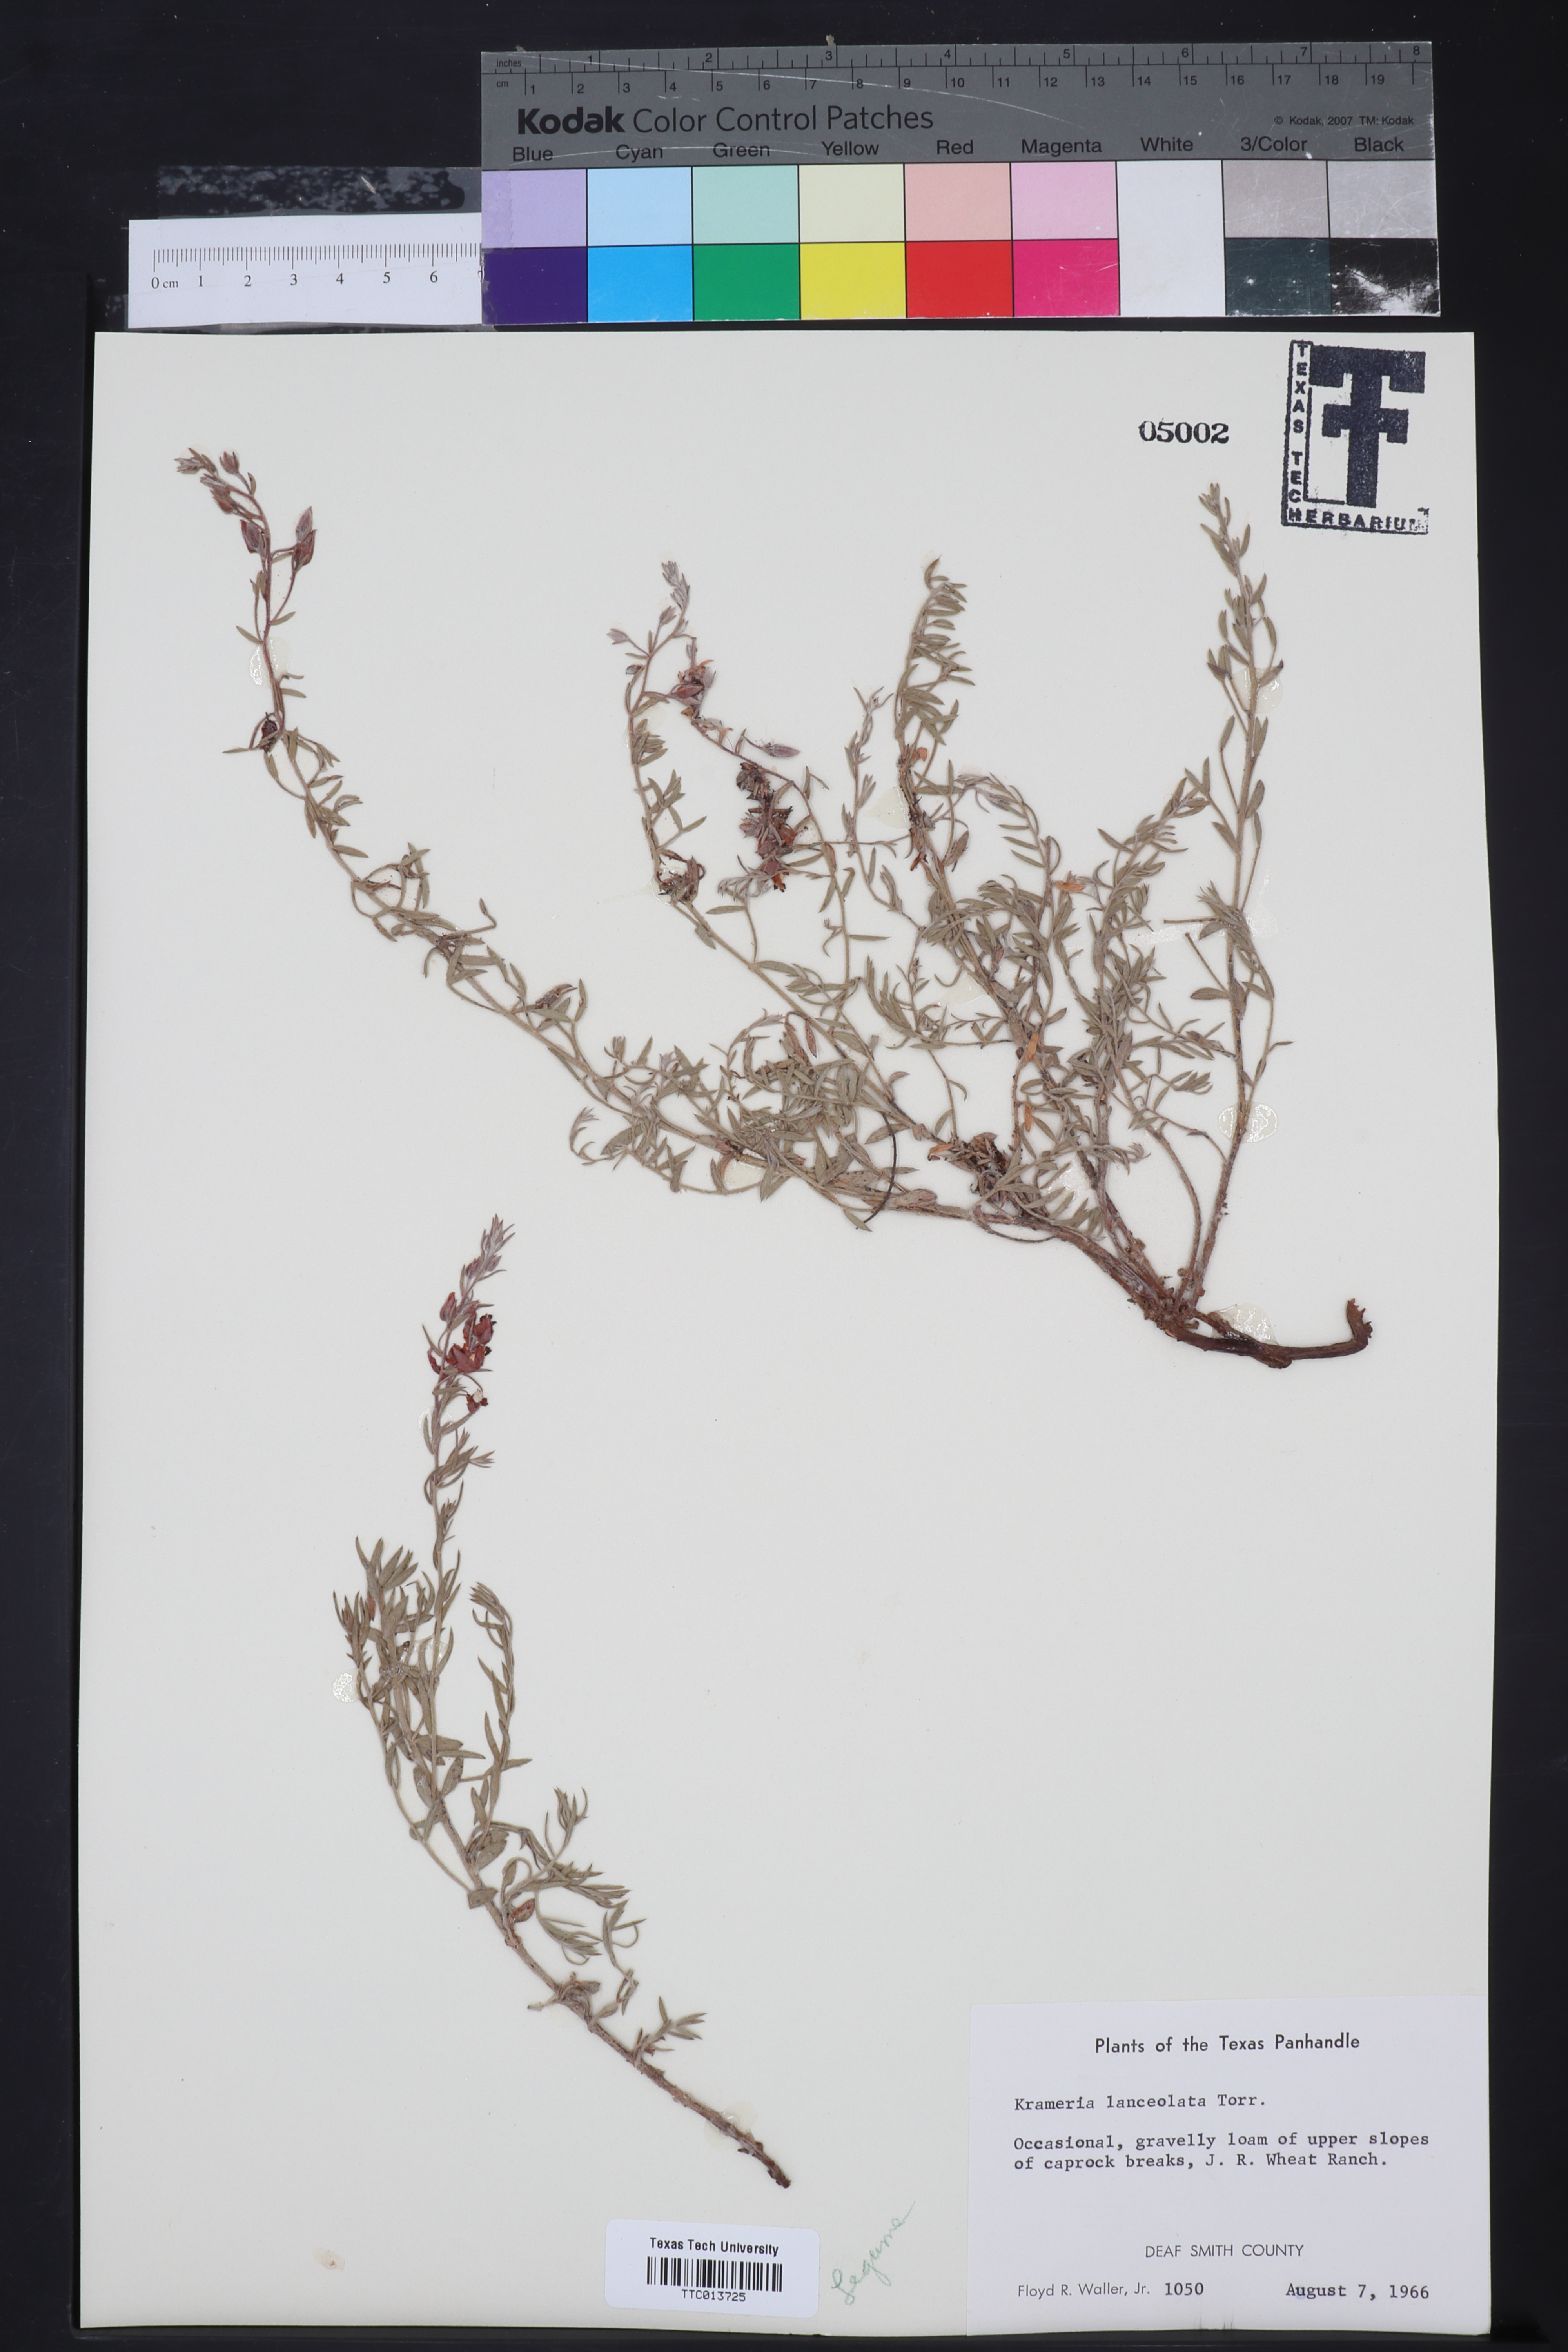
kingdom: Plantae
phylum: Tracheophyta
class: Magnoliopsida
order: Zygophyllales
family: Krameriaceae
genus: Krameria
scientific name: Krameria lanceolata
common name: Ratany
